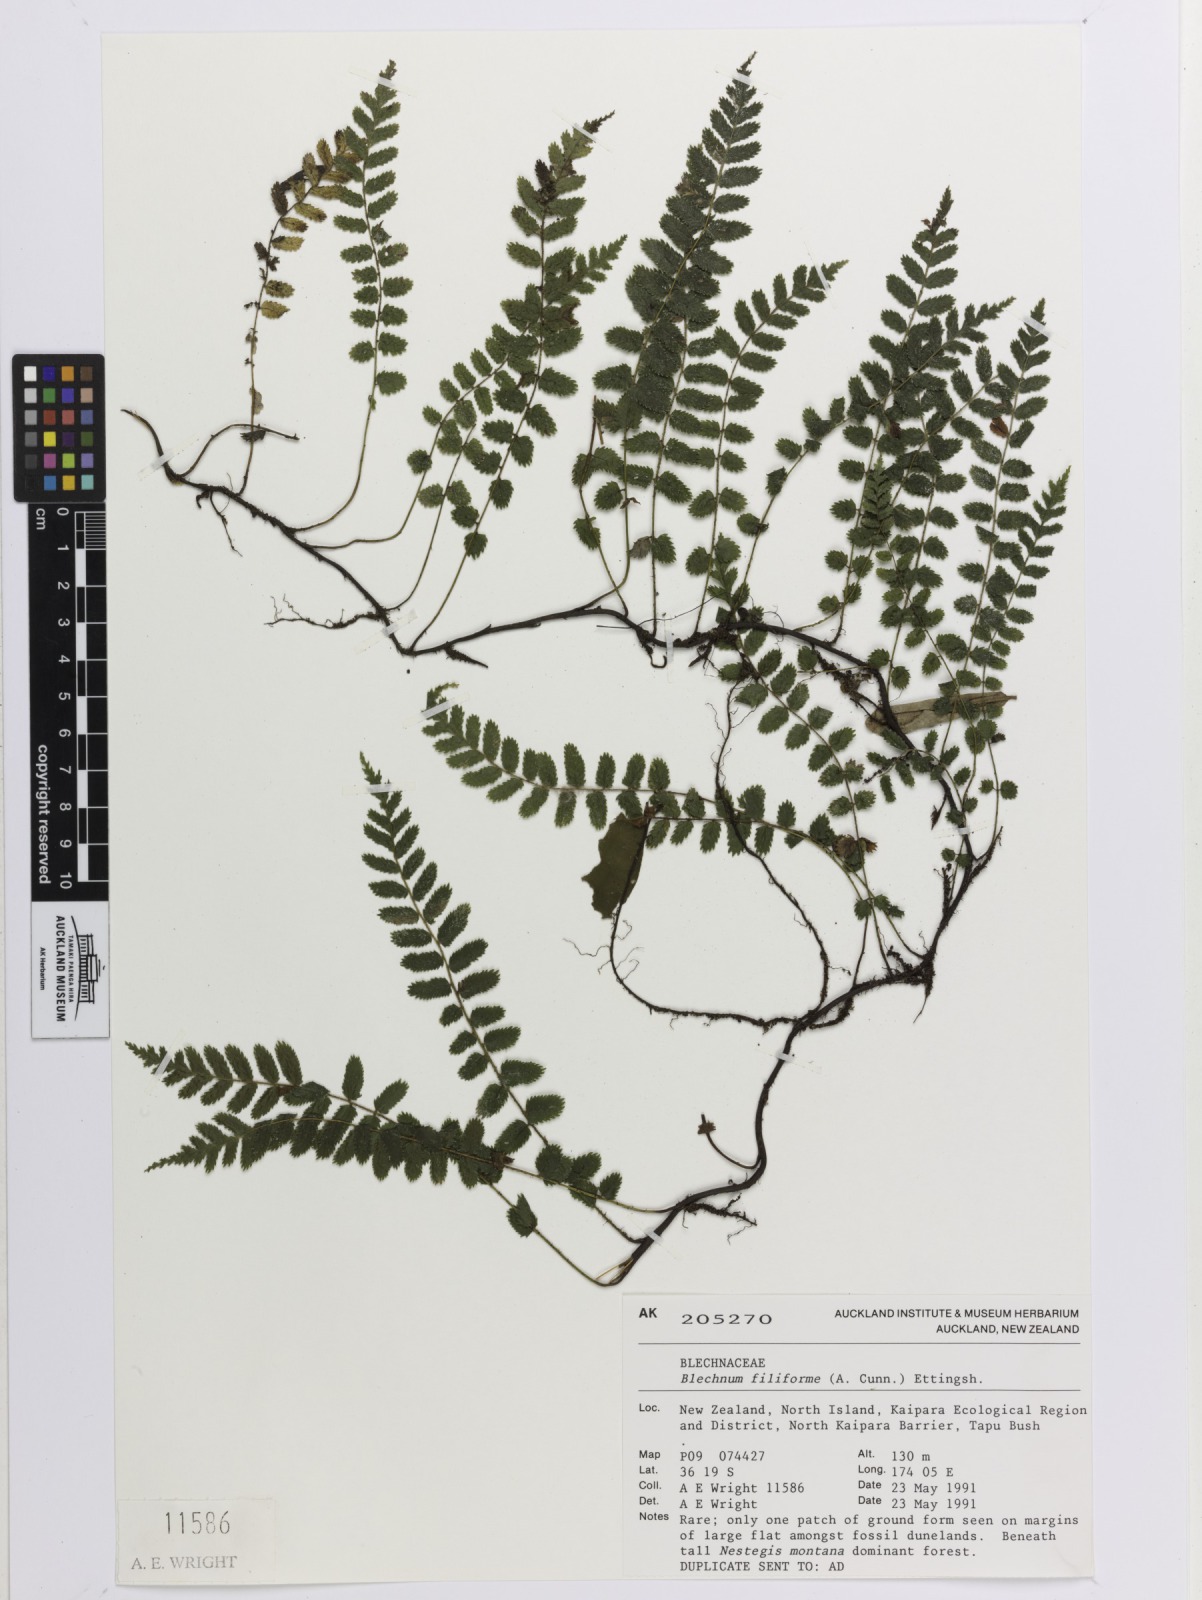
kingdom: Plantae
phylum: Tracheophyta
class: Polypodiopsida
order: Polypodiales
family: Blechnaceae
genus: Icarus
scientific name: Icarus filiformis
